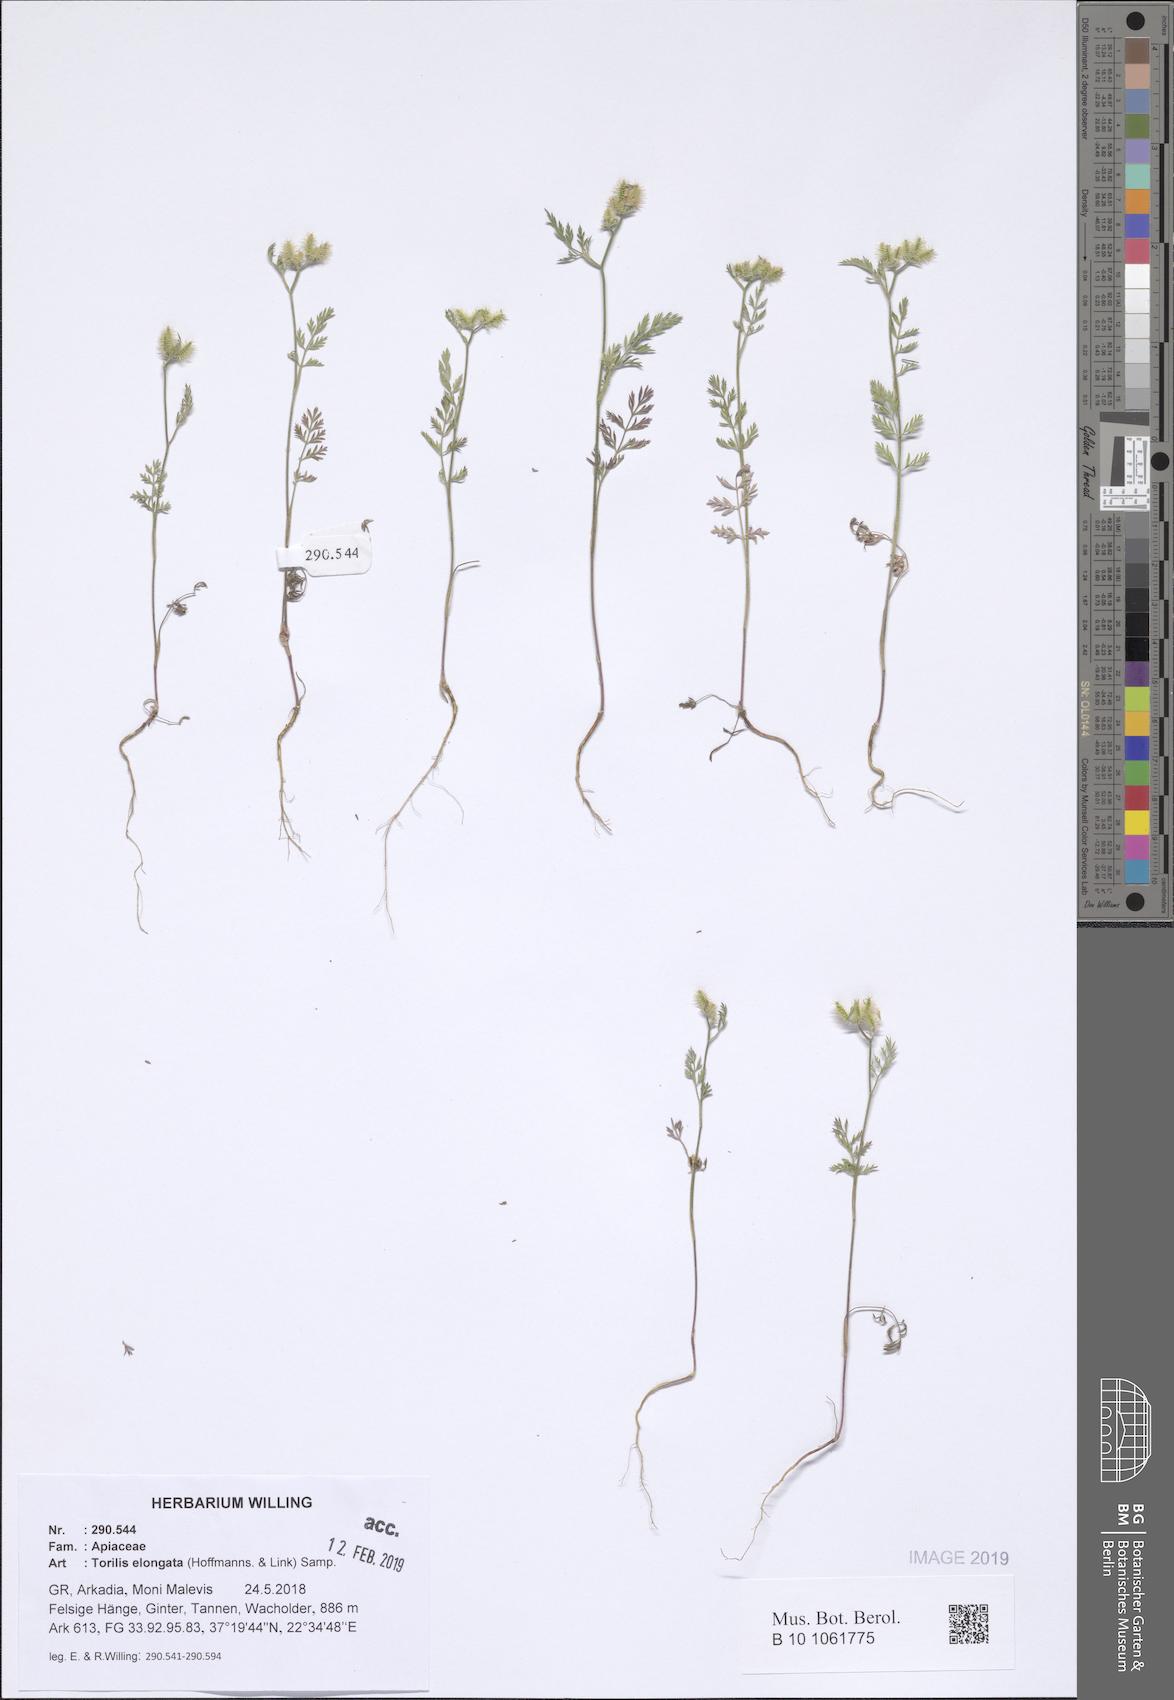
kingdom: Plantae
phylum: Tracheophyta
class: Magnoliopsida
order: Apiales
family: Apiaceae
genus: Torilis
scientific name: Torilis elongata
